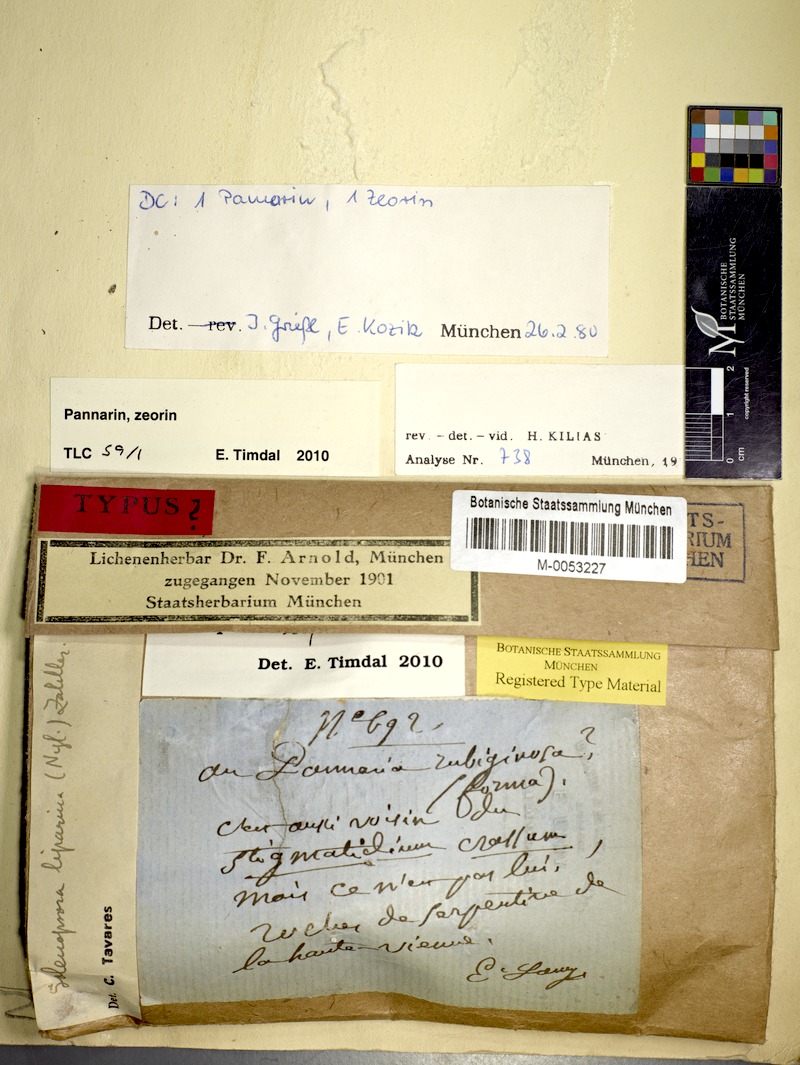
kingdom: Fungi
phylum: Ascomycota
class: Lecanoromycetes
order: Lecanorales
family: Catillariaceae
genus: Solenopsora
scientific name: Solenopsora liparina
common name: Serpentine solenopsora
